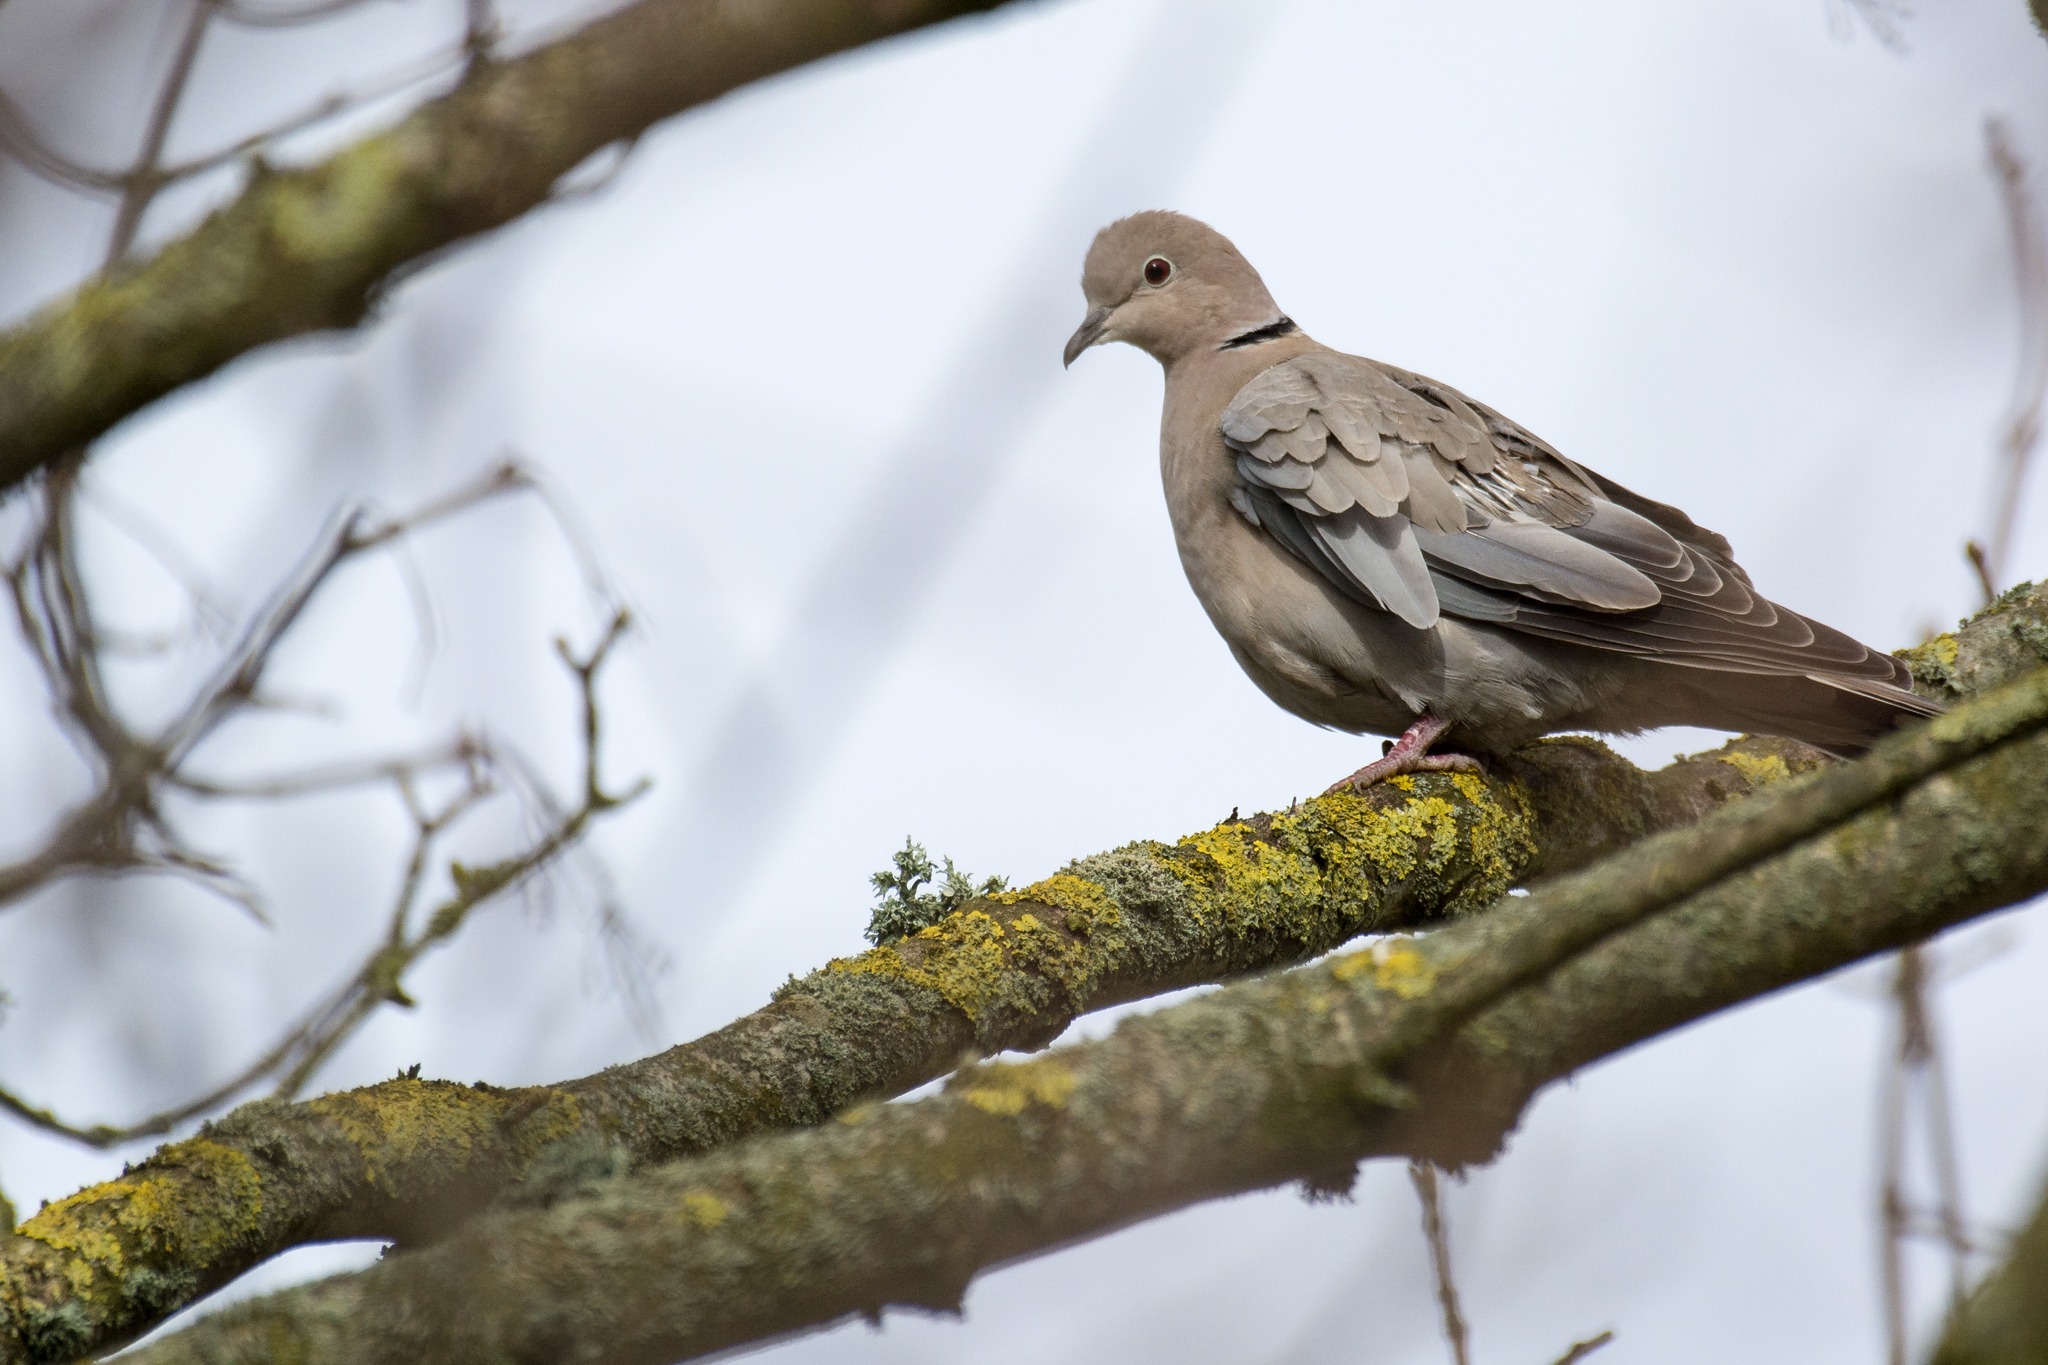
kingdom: Animalia
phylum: Chordata
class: Aves
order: Columbiformes
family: Columbidae
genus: Streptopelia
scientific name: Streptopelia decaocto
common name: Tyrkerdue
